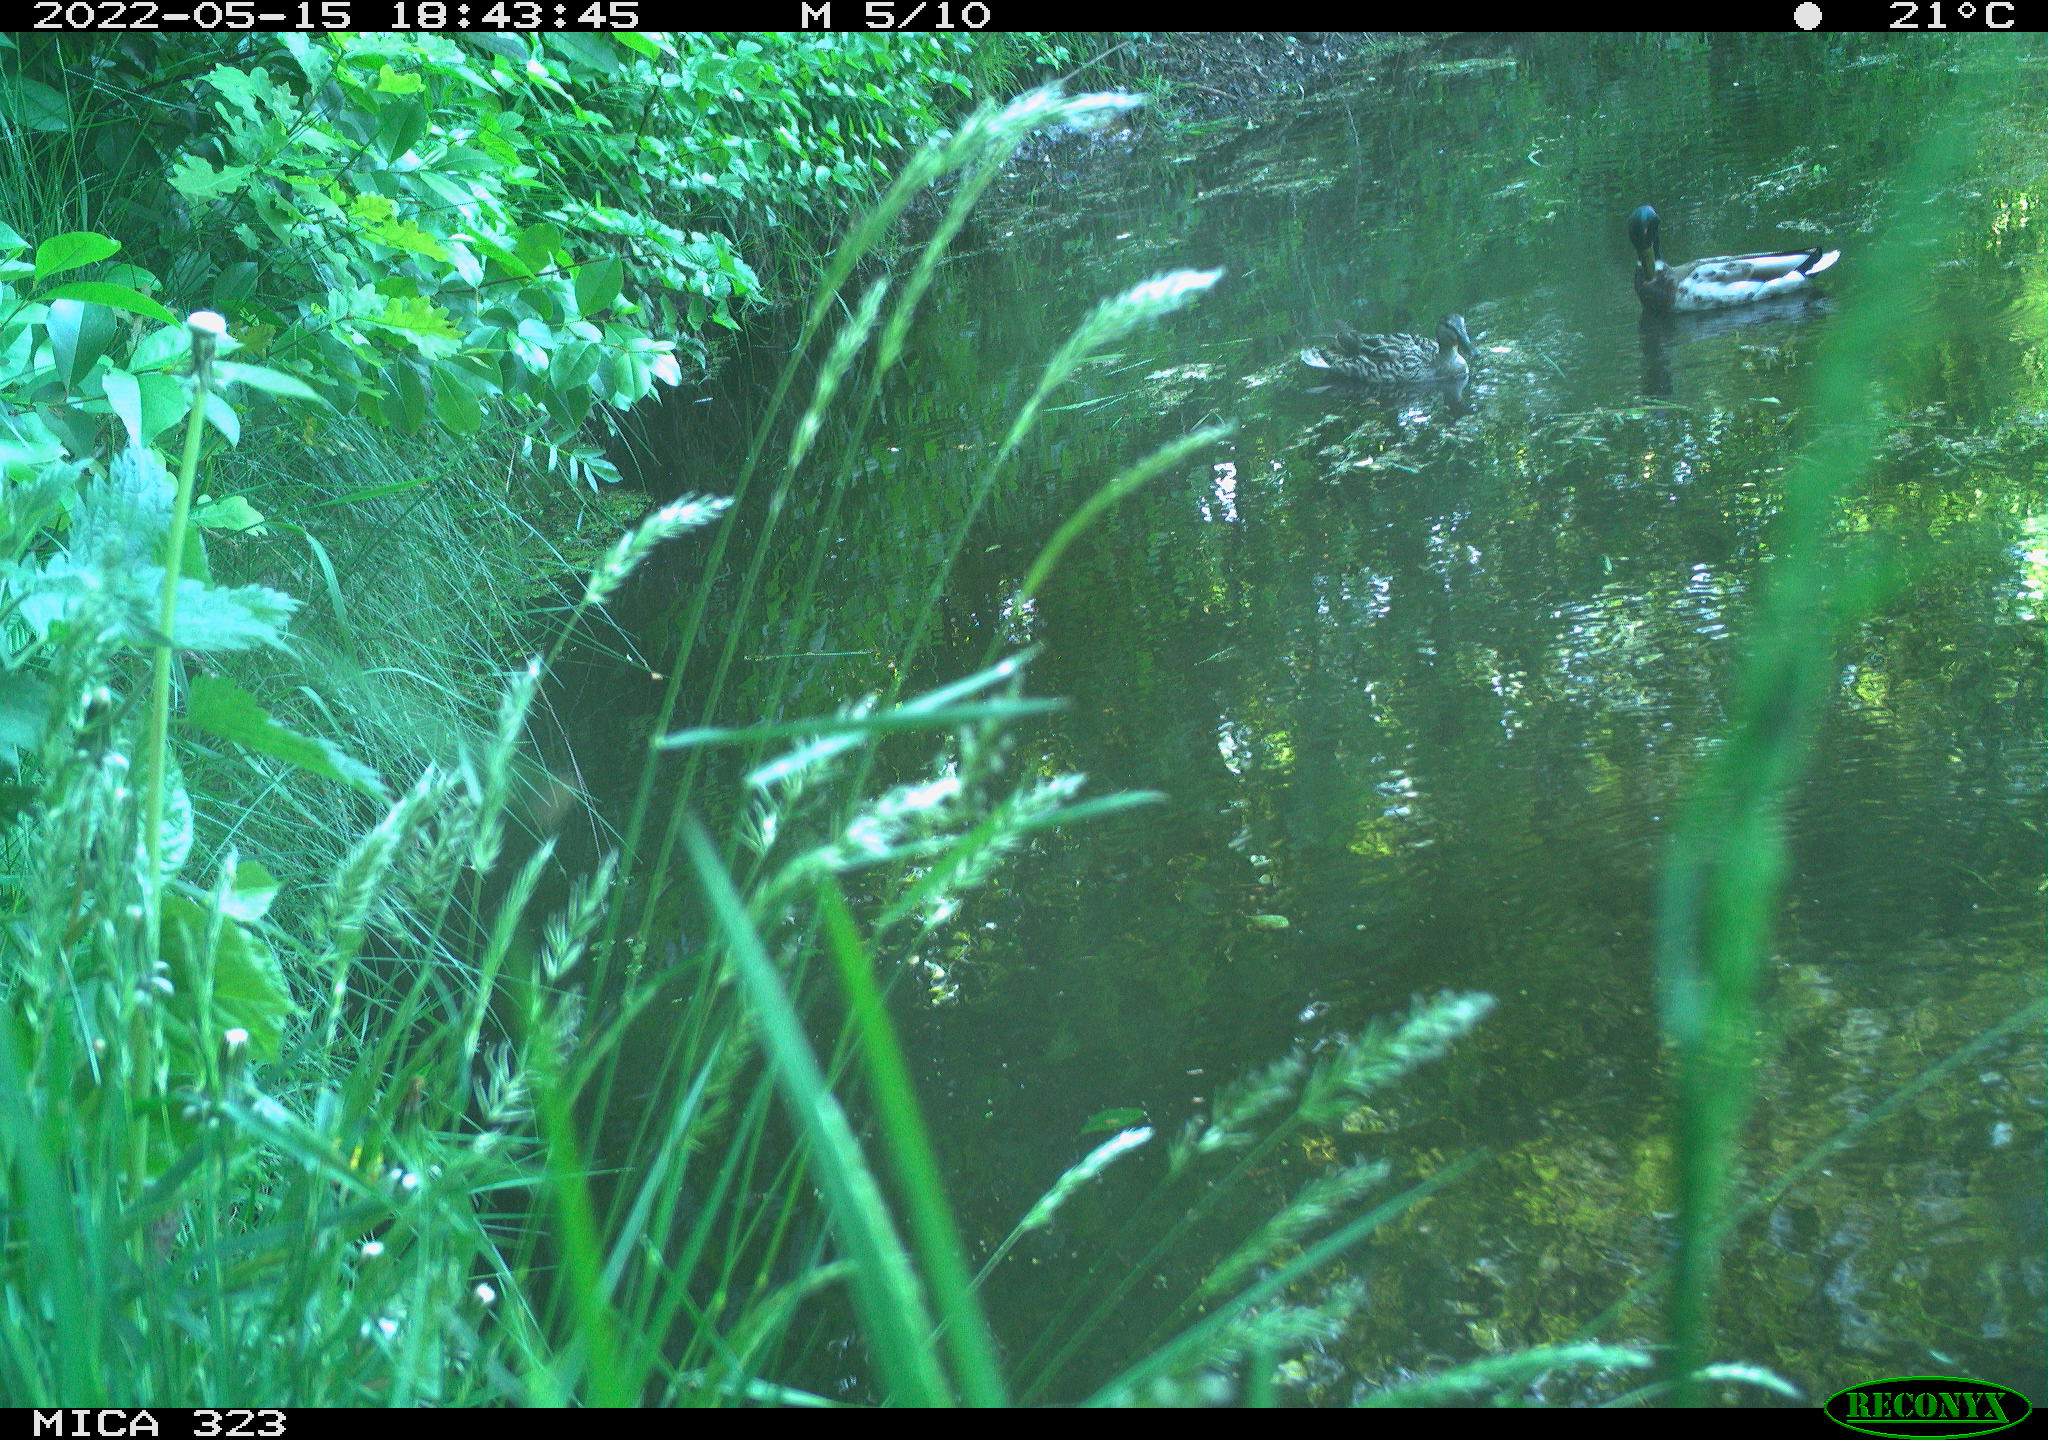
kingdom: Animalia
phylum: Chordata
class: Aves
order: Anseriformes
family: Anatidae
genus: Anas
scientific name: Anas platyrhynchos
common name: Mallard
